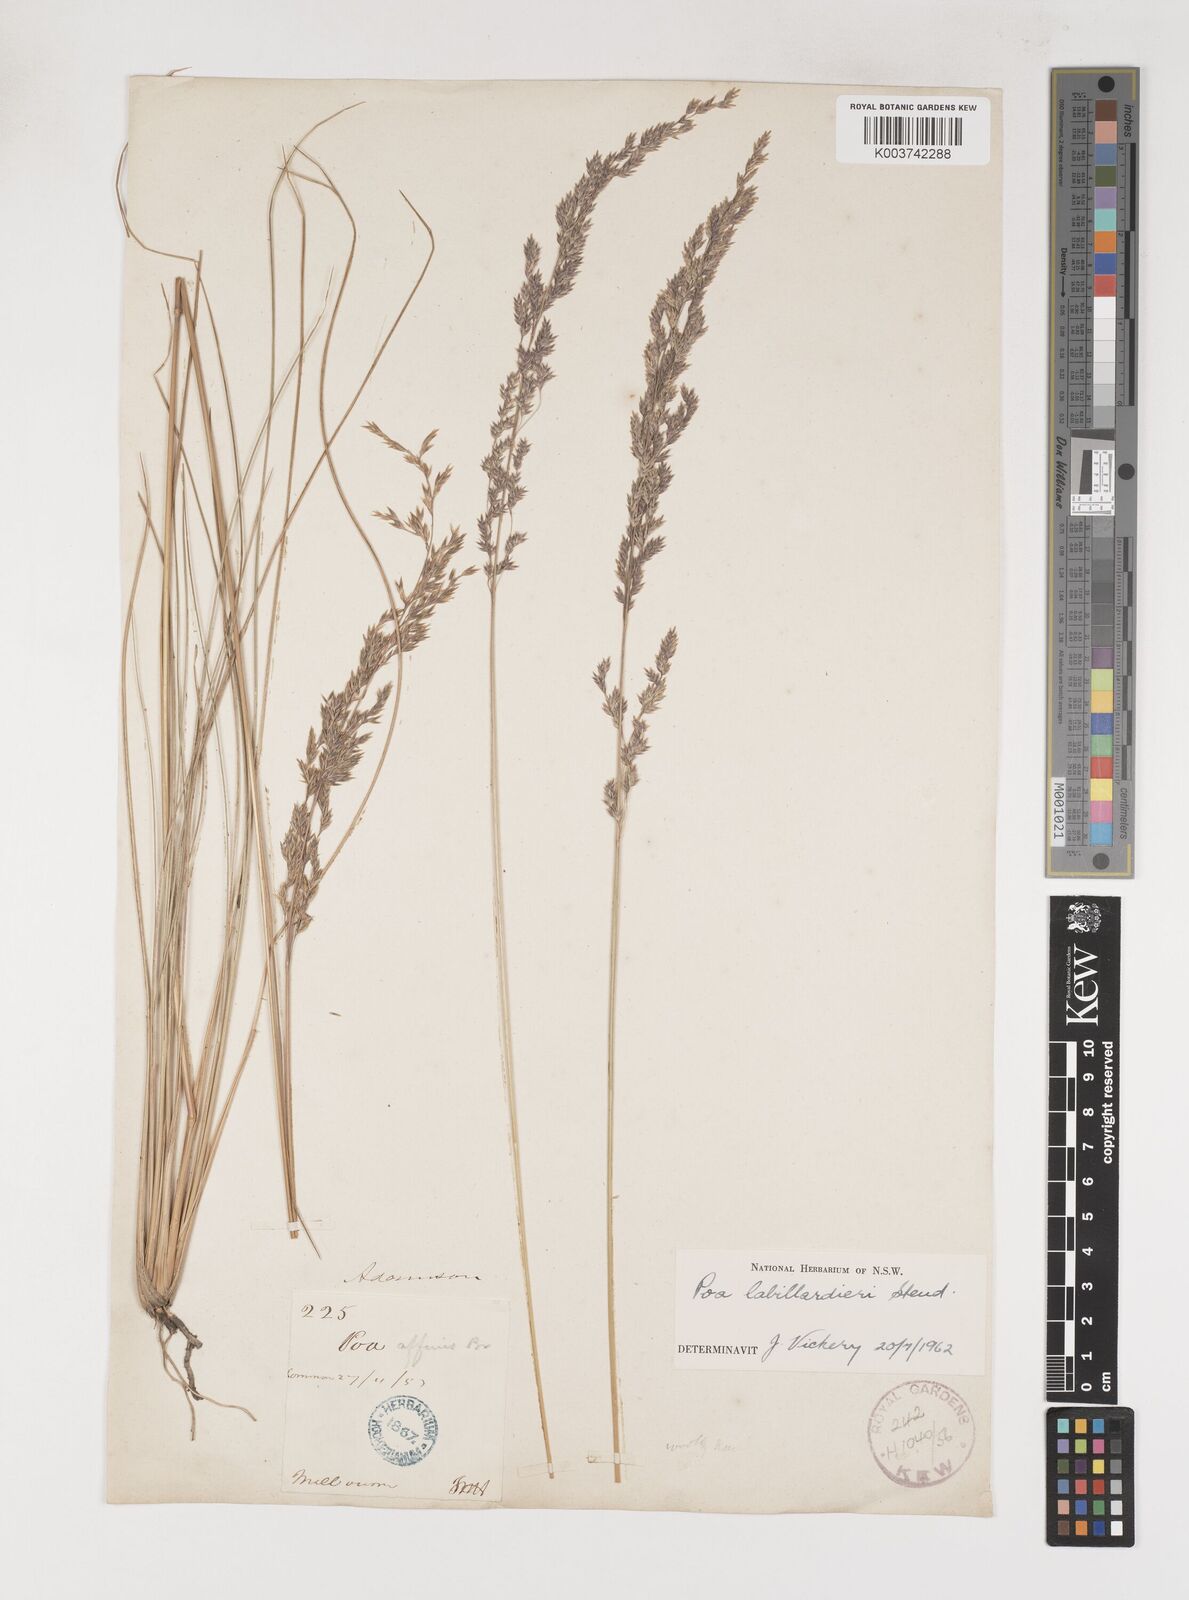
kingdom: Plantae
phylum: Tracheophyta
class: Liliopsida
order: Poales
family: Poaceae
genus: Poa
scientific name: Poa labillardierei
